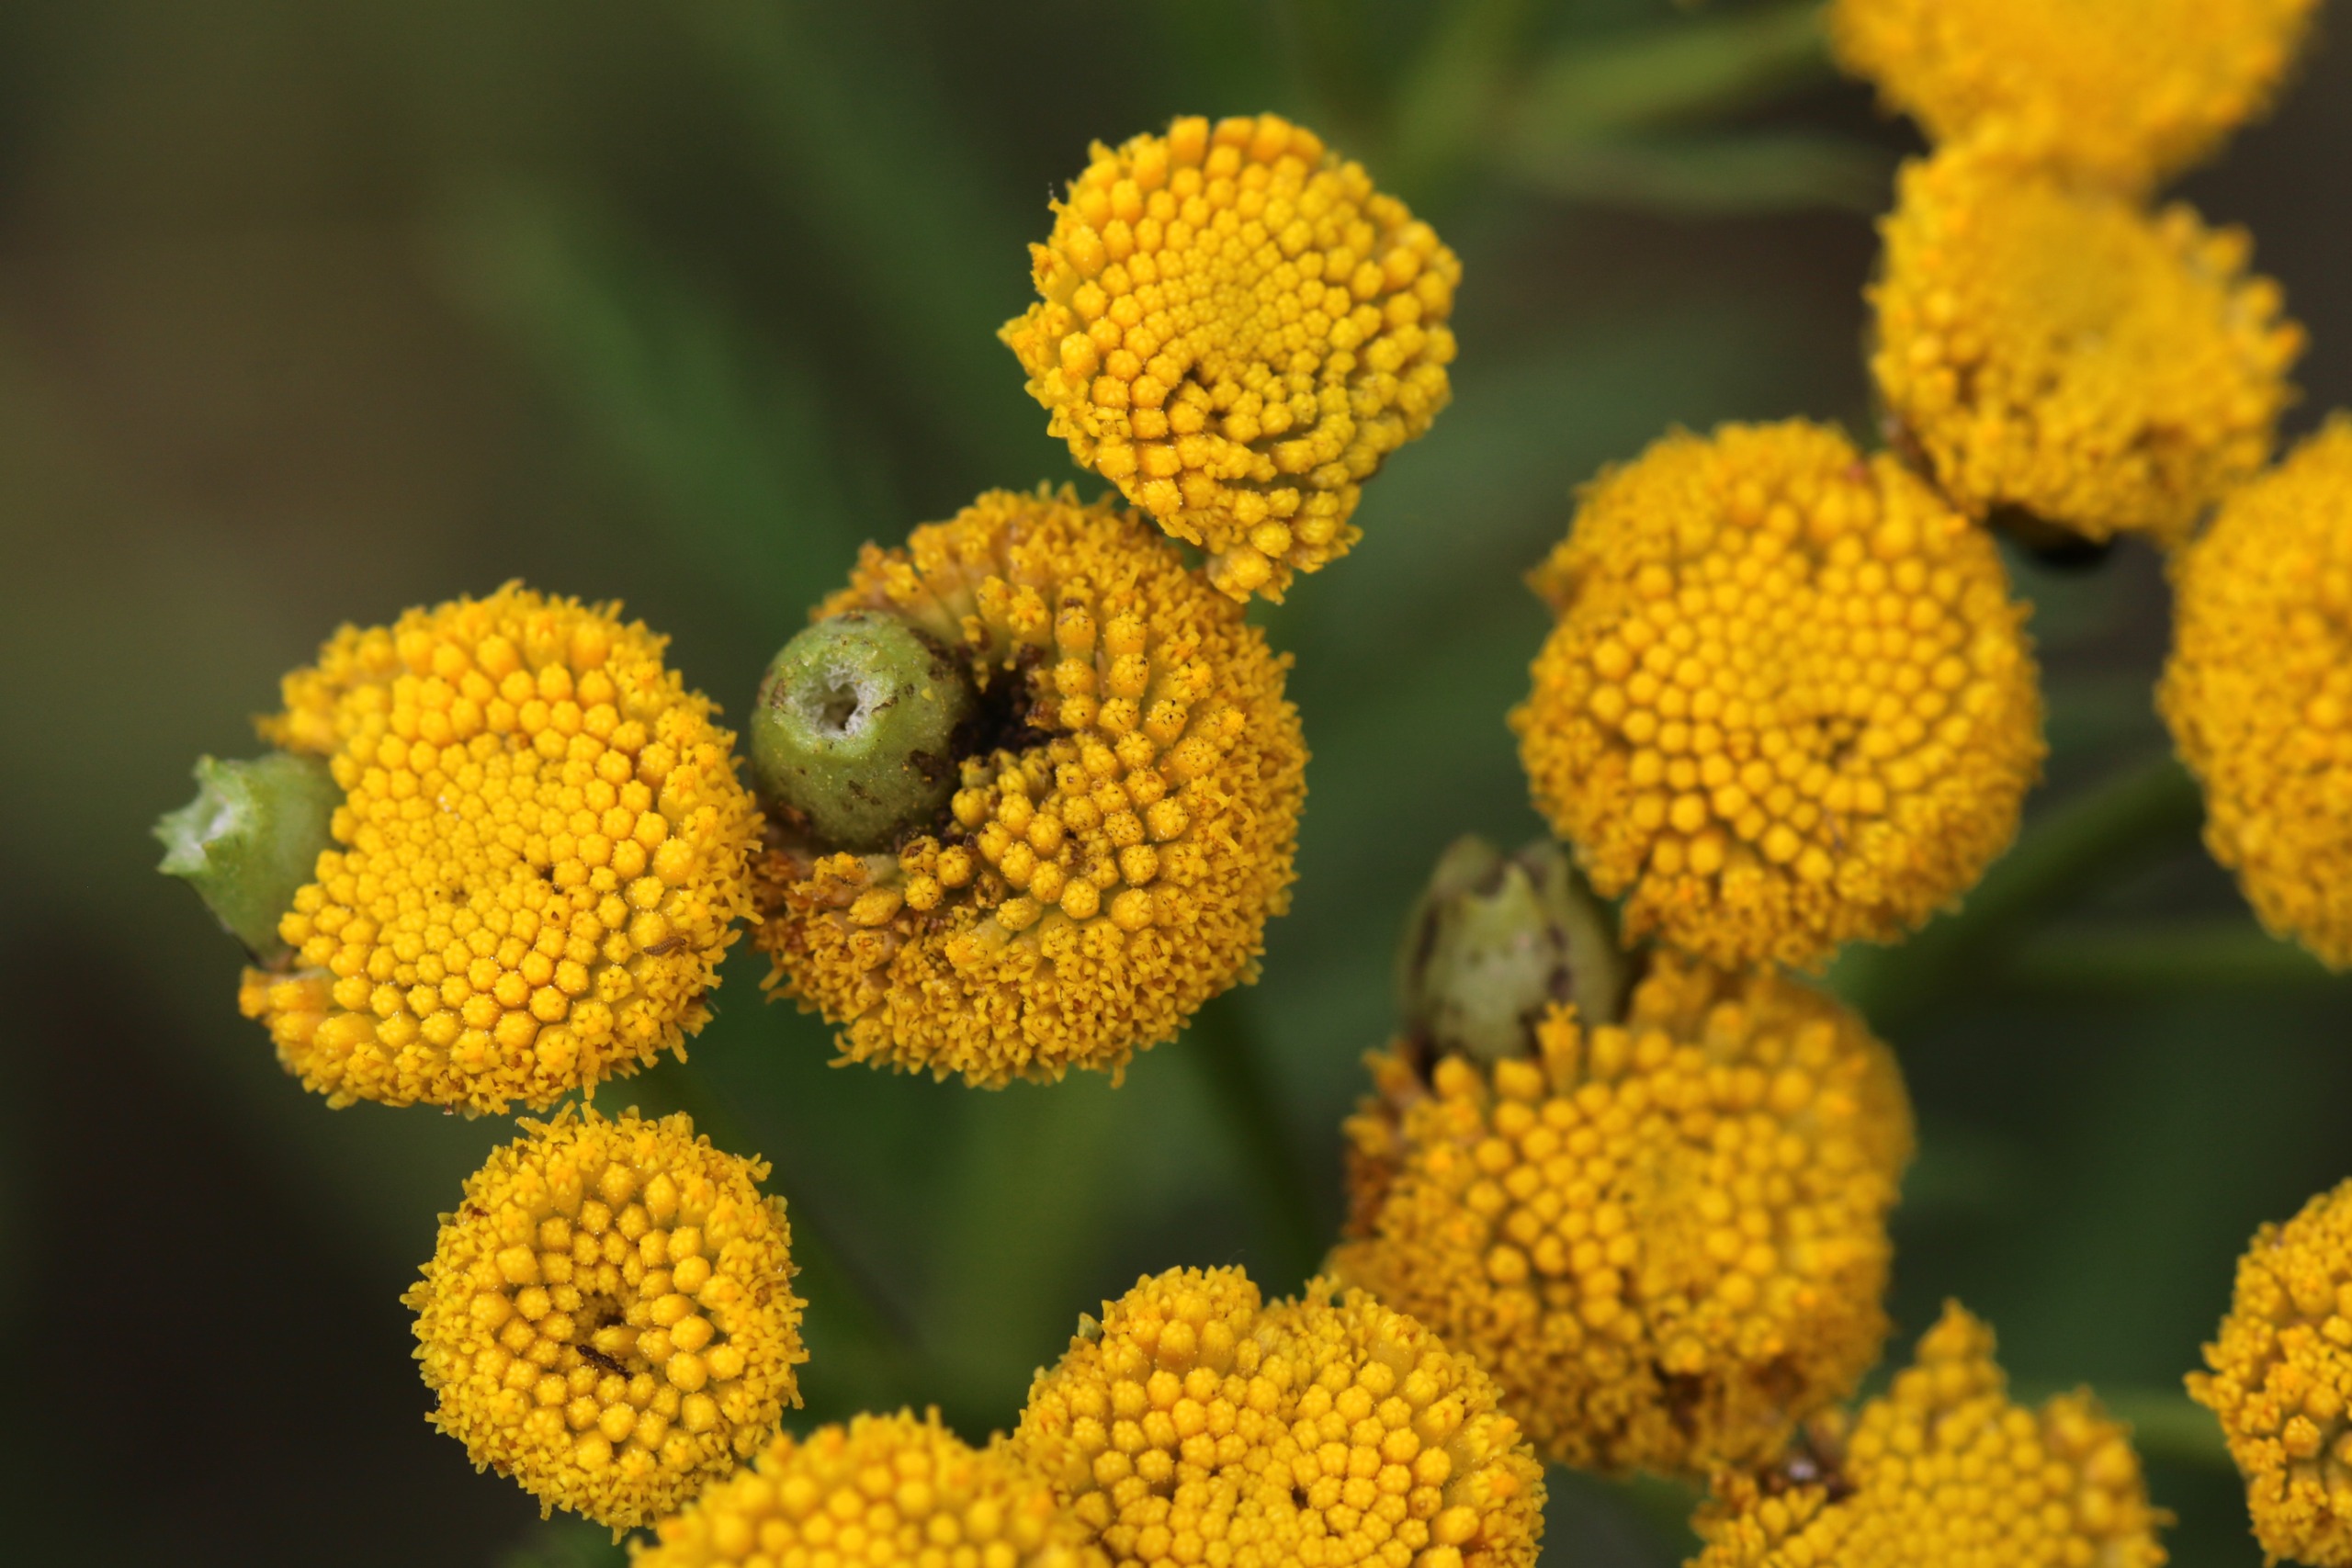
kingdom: Animalia
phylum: Arthropoda
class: Insecta
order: Diptera
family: Cecidomyiidae
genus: Rhopalomyia
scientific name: Rhopalomyia tanaceticolus
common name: Rejnfangalmyg
